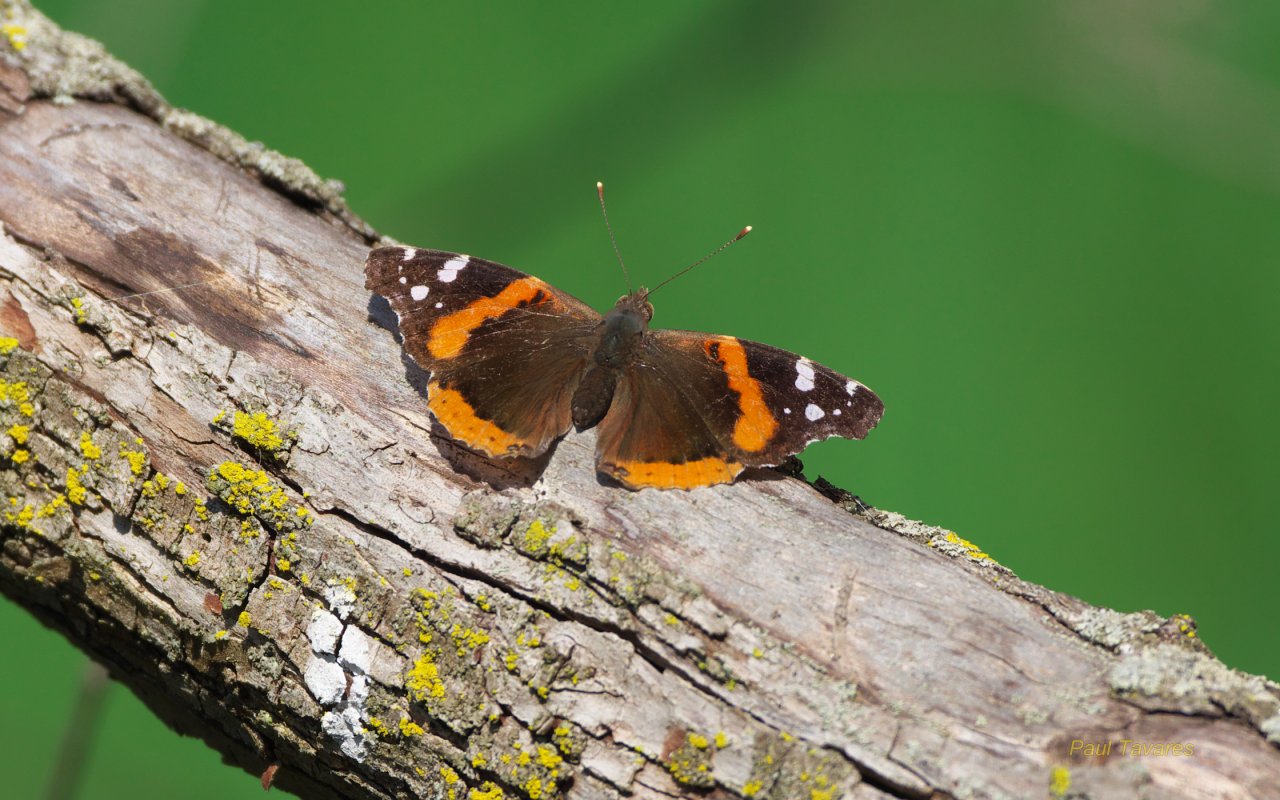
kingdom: Animalia
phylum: Arthropoda
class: Insecta
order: Lepidoptera
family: Nymphalidae
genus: Vanessa
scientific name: Vanessa atalanta
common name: Red Admiral
